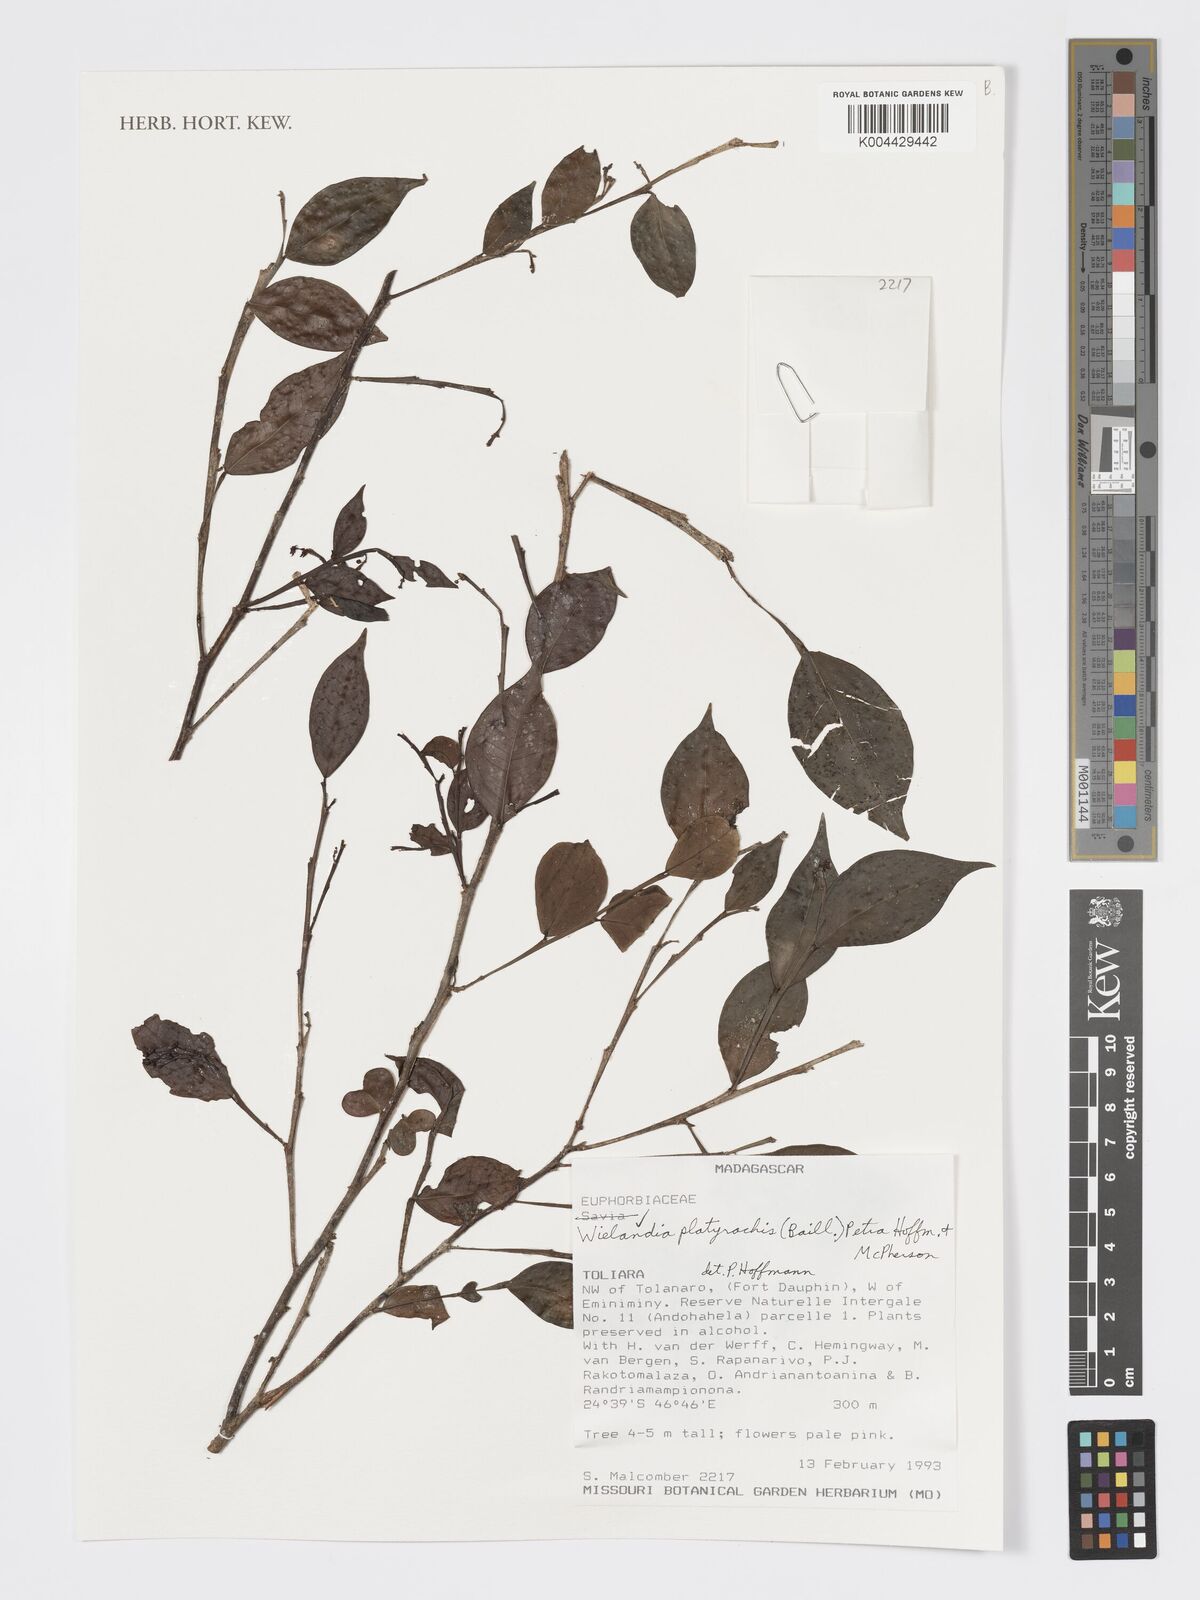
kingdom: Plantae
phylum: Tracheophyta
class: Magnoliopsida
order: Malpighiales
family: Phyllanthaceae
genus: Wielandia
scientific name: Wielandia platyrachis
